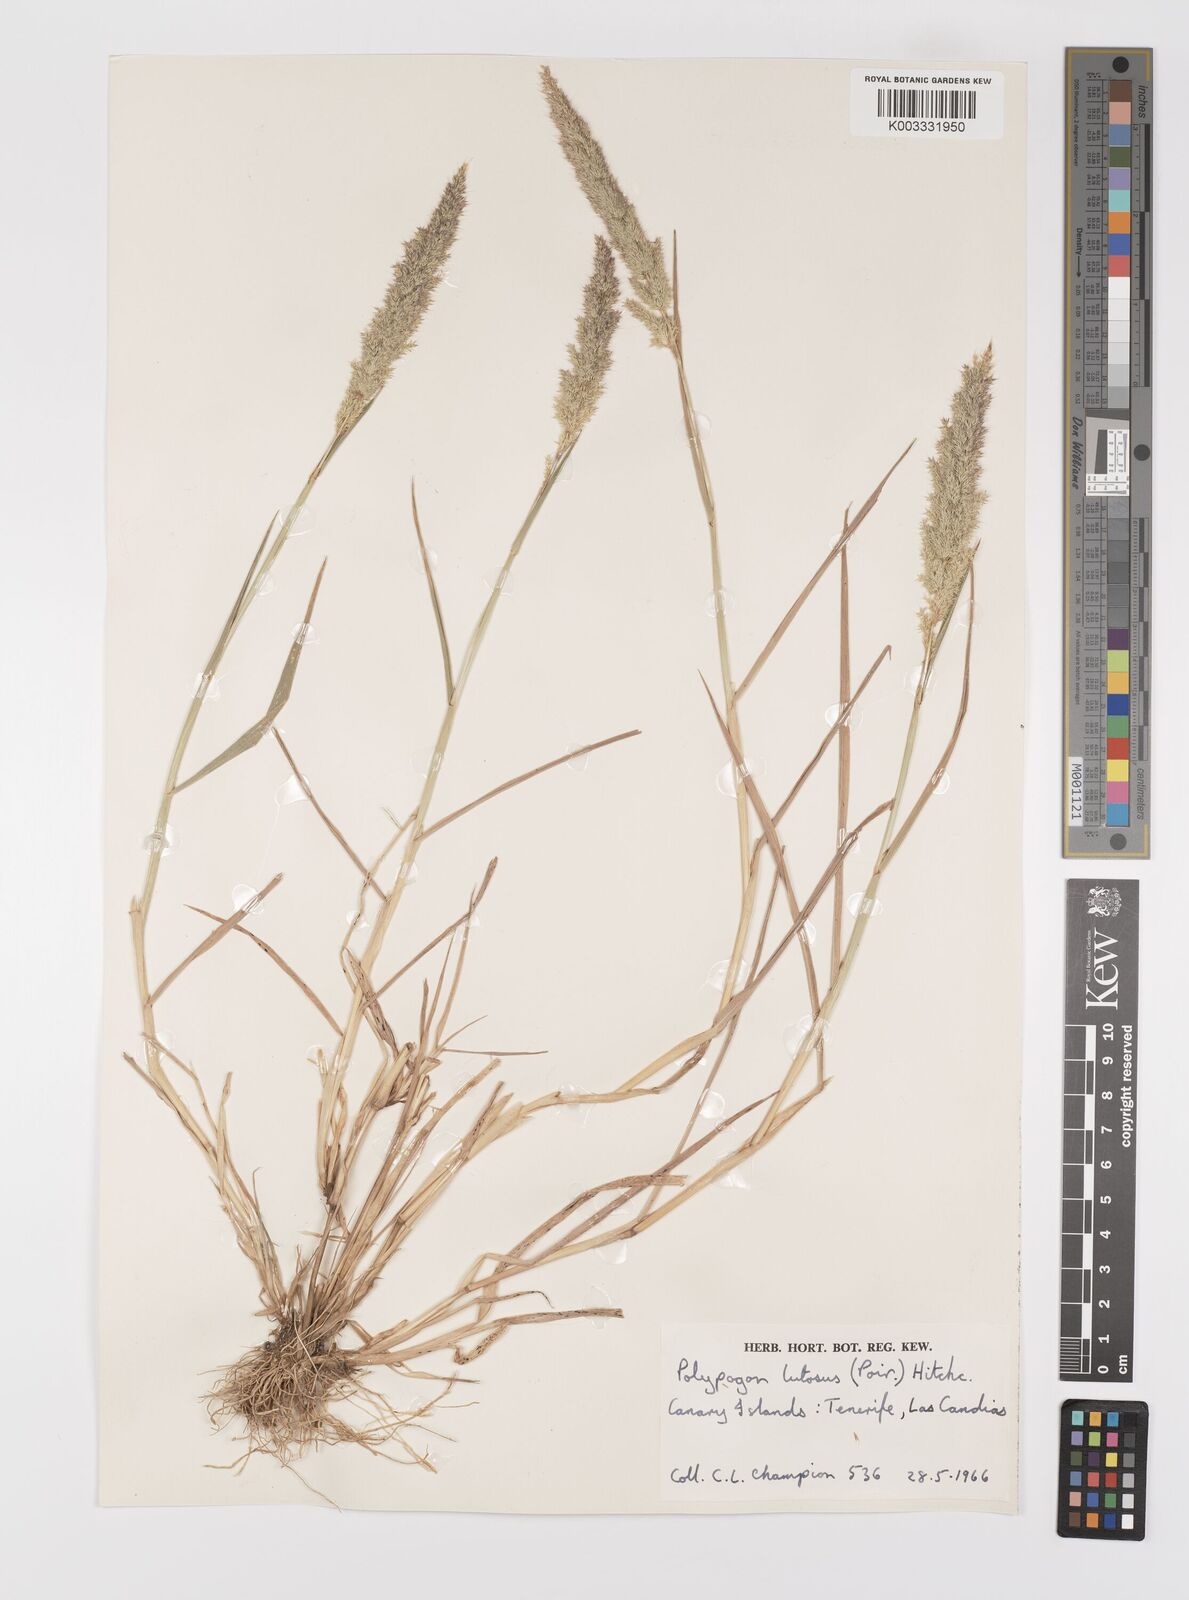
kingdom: Plantae
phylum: Tracheophyta
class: Liliopsida
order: Poales
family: Poaceae
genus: Polypogon
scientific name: Polypogon fugax
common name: Asia minor bluegrass
